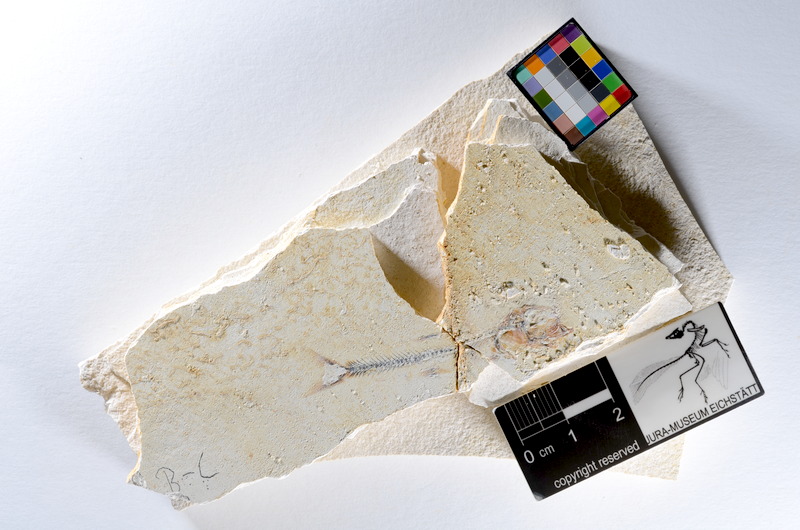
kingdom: Animalia
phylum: Chordata
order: Salmoniformes
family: Orthogonikleithridae
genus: Orthogonikleithrus
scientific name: Orthogonikleithrus hoelli
